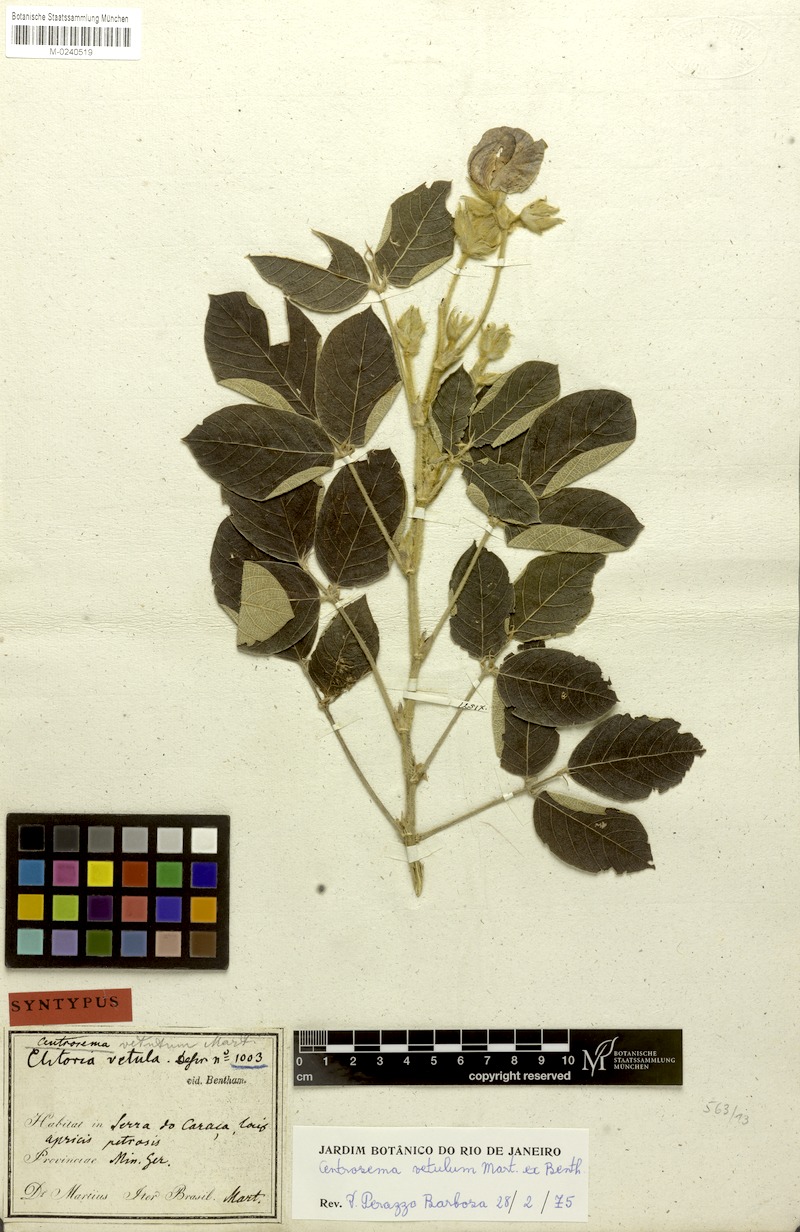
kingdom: Plantae
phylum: Tracheophyta
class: Magnoliopsida
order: Fabales
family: Fabaceae
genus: Centrosema
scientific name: Centrosema vetulum
